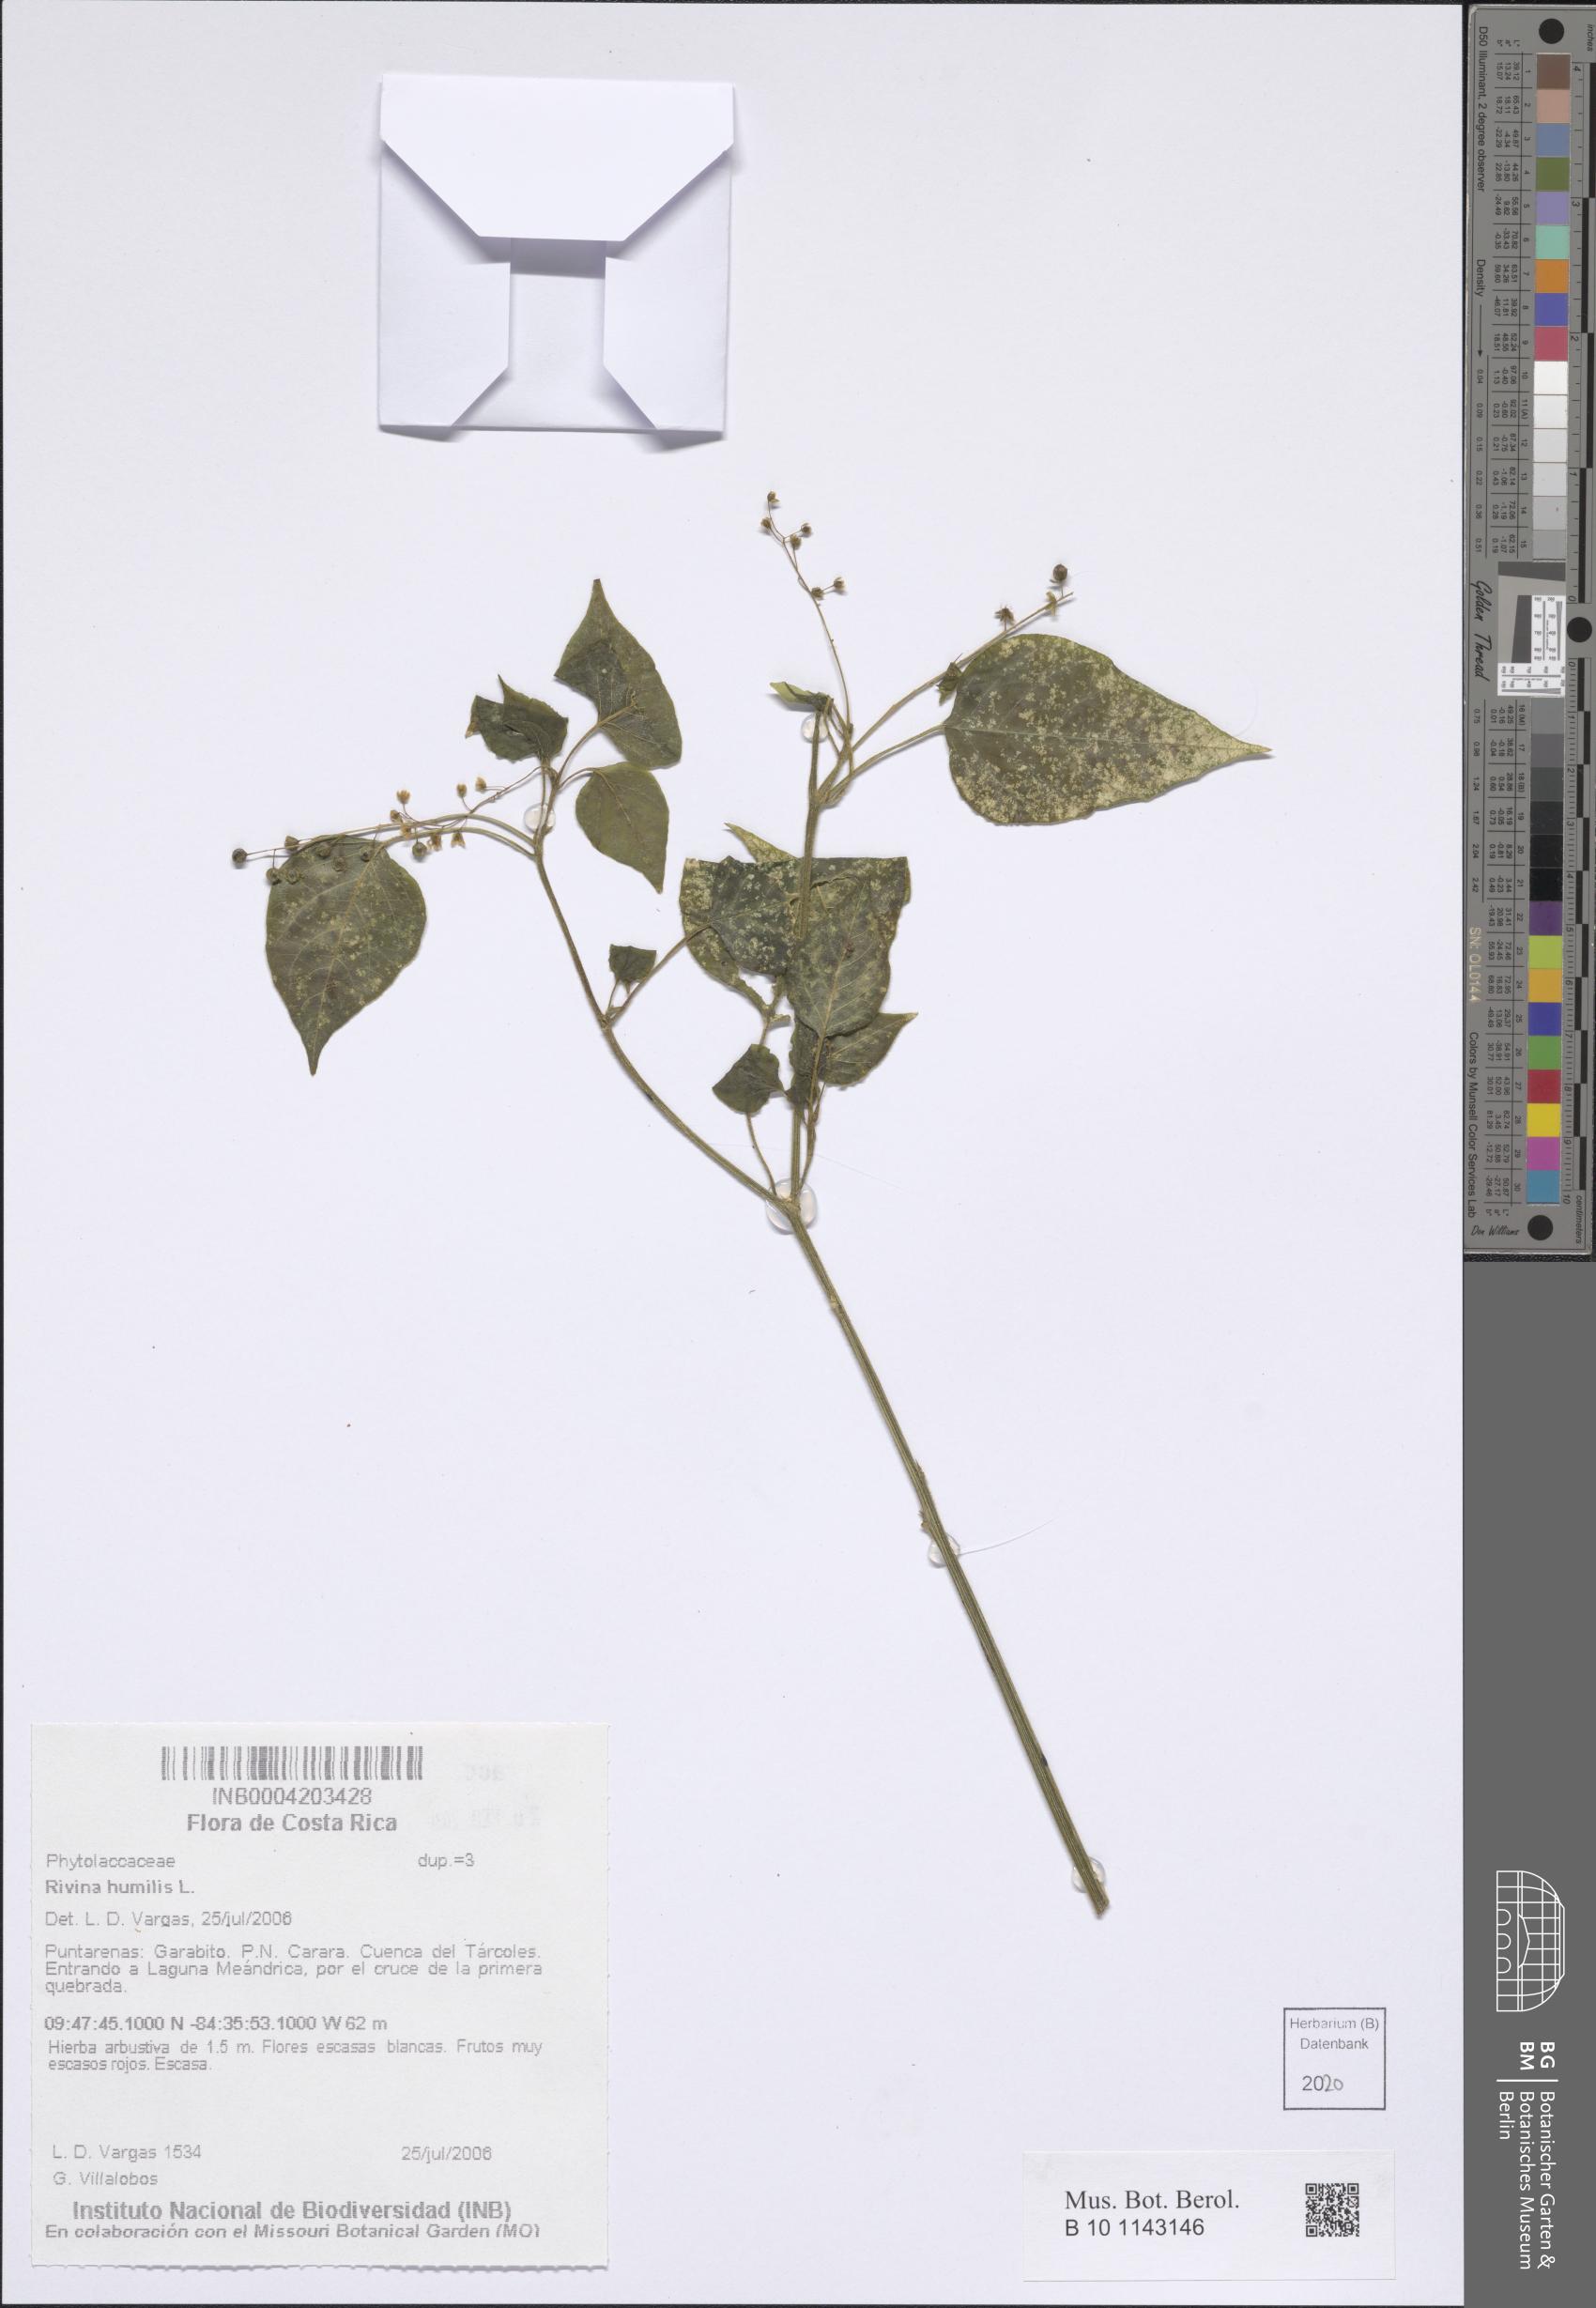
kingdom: Plantae
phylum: Tracheophyta
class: Magnoliopsida
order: Caryophyllales
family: Phytolaccaceae
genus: Rivina
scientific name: Rivina humilis
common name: Rougeplant
